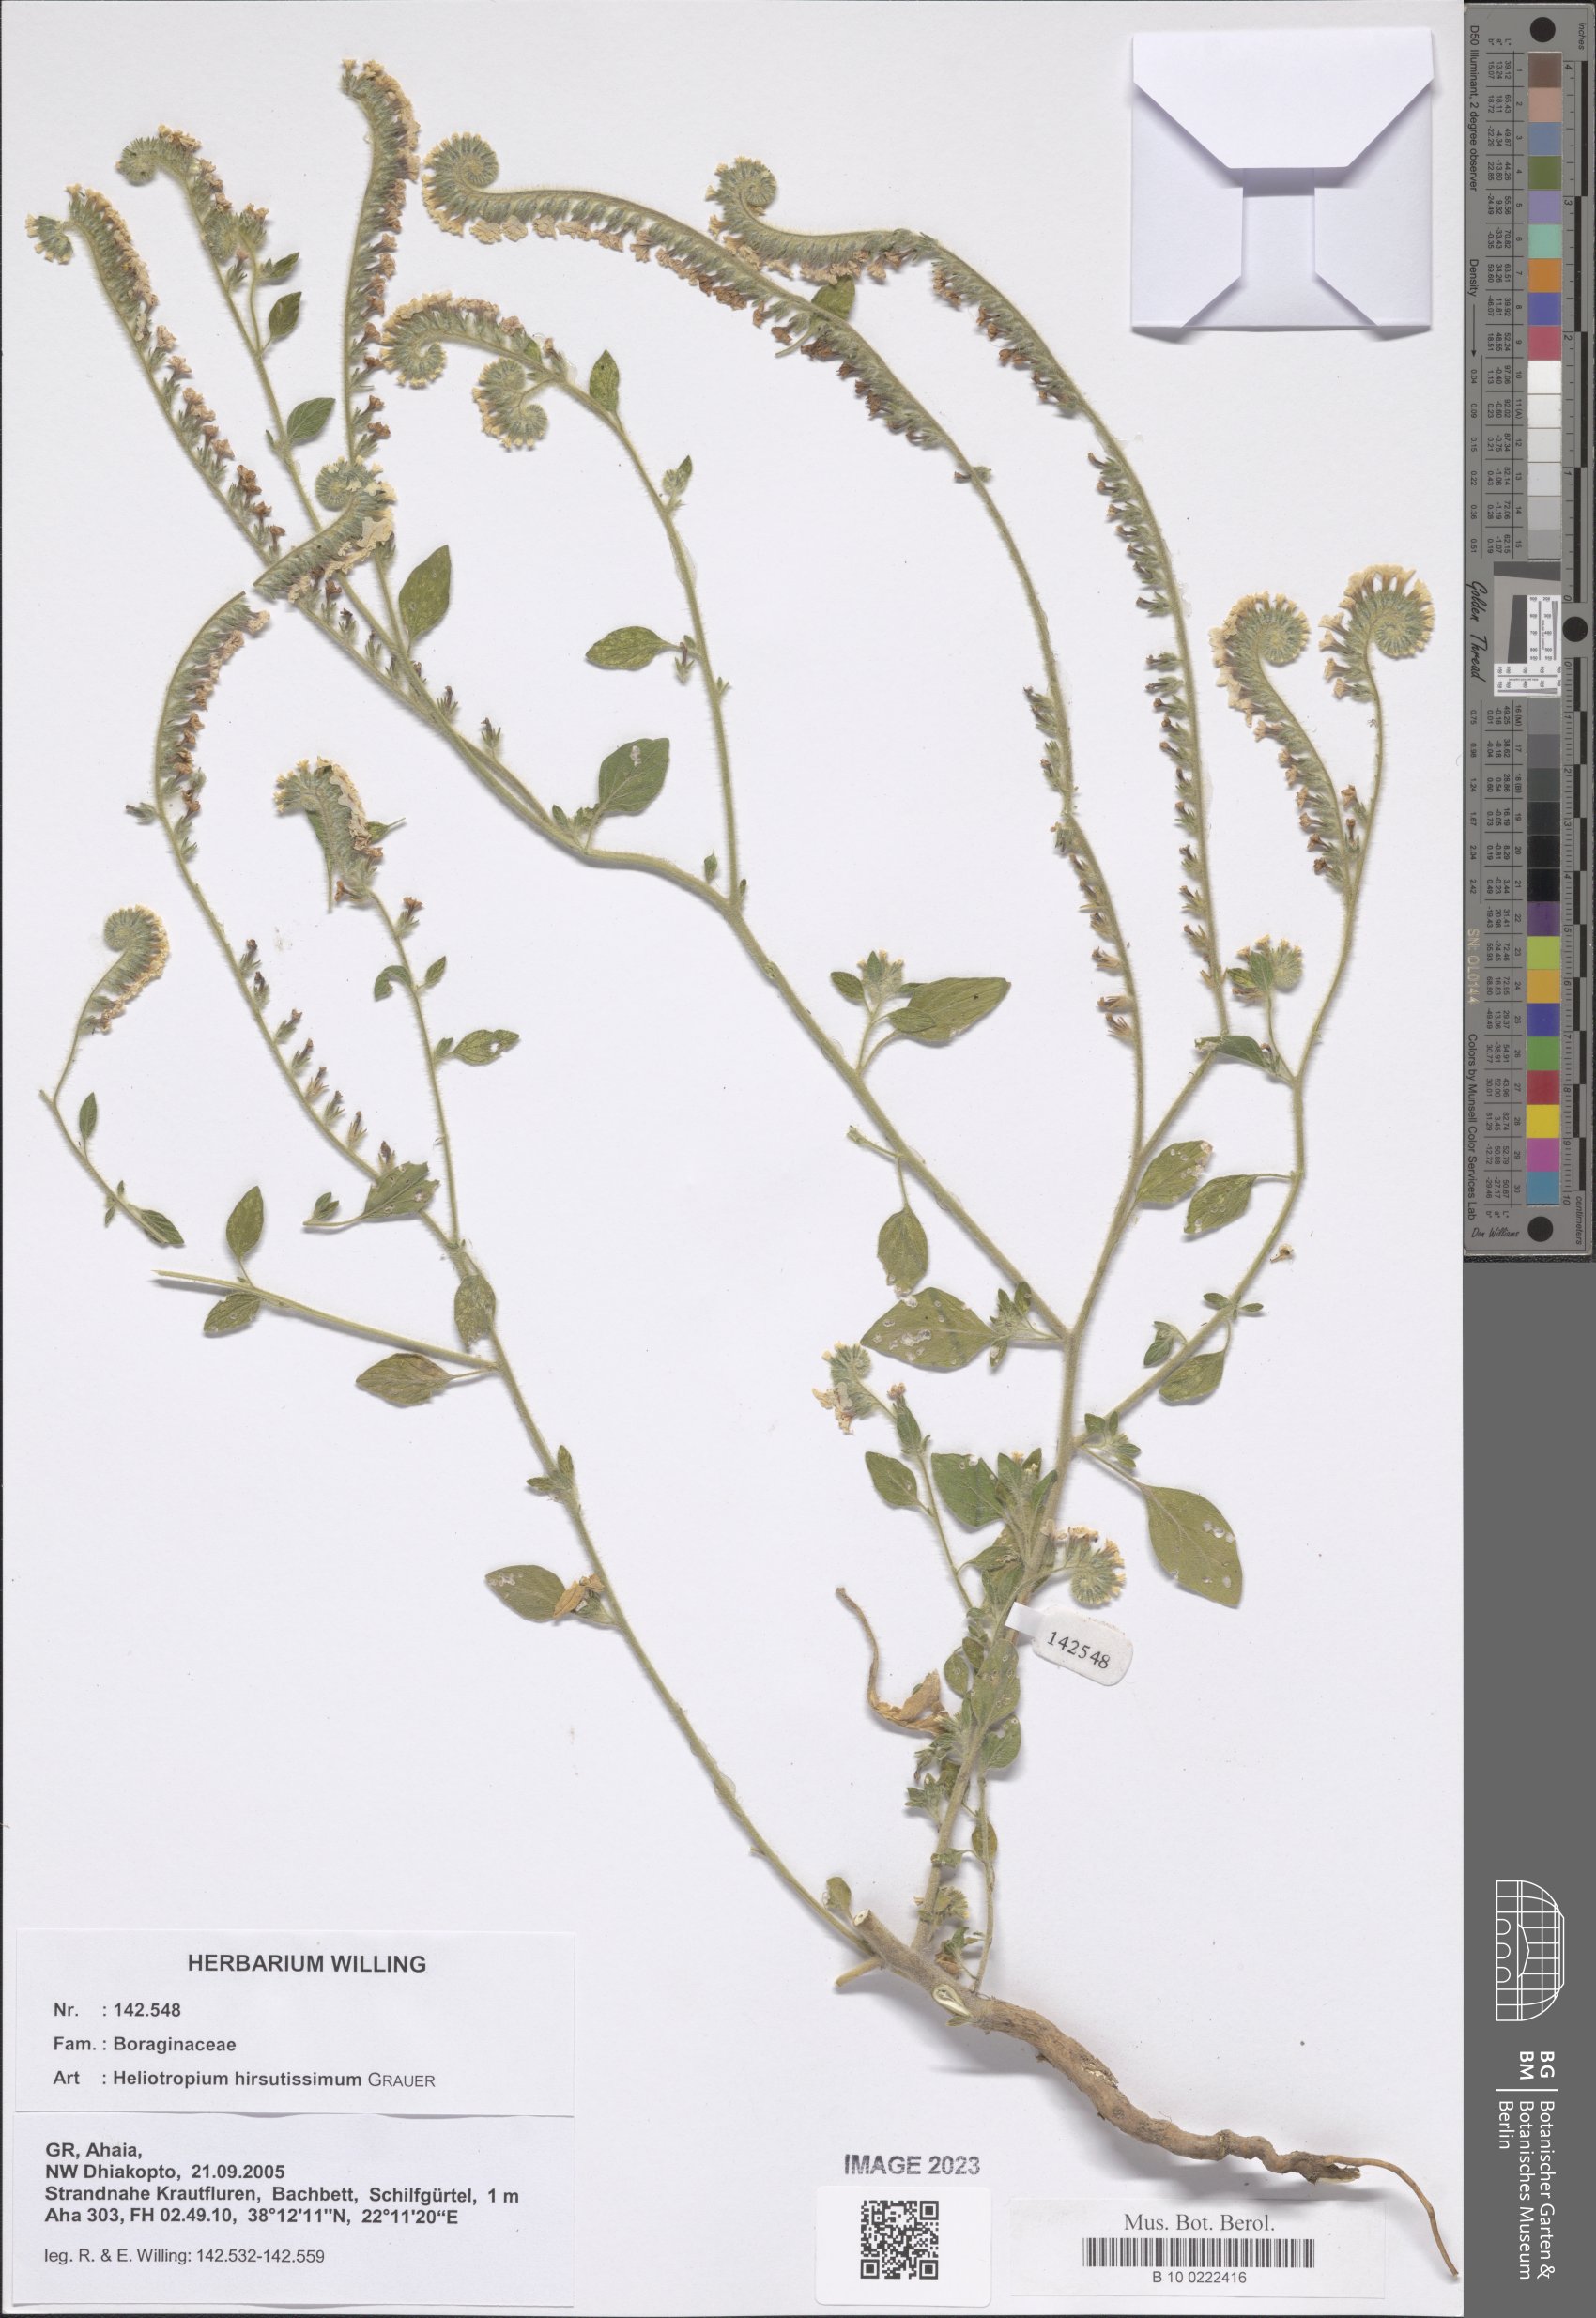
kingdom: Plantae
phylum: Tracheophyta
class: Magnoliopsida
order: Boraginales
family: Heliotropiaceae
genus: Heliotropium
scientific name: Heliotropium hirsutissimum
